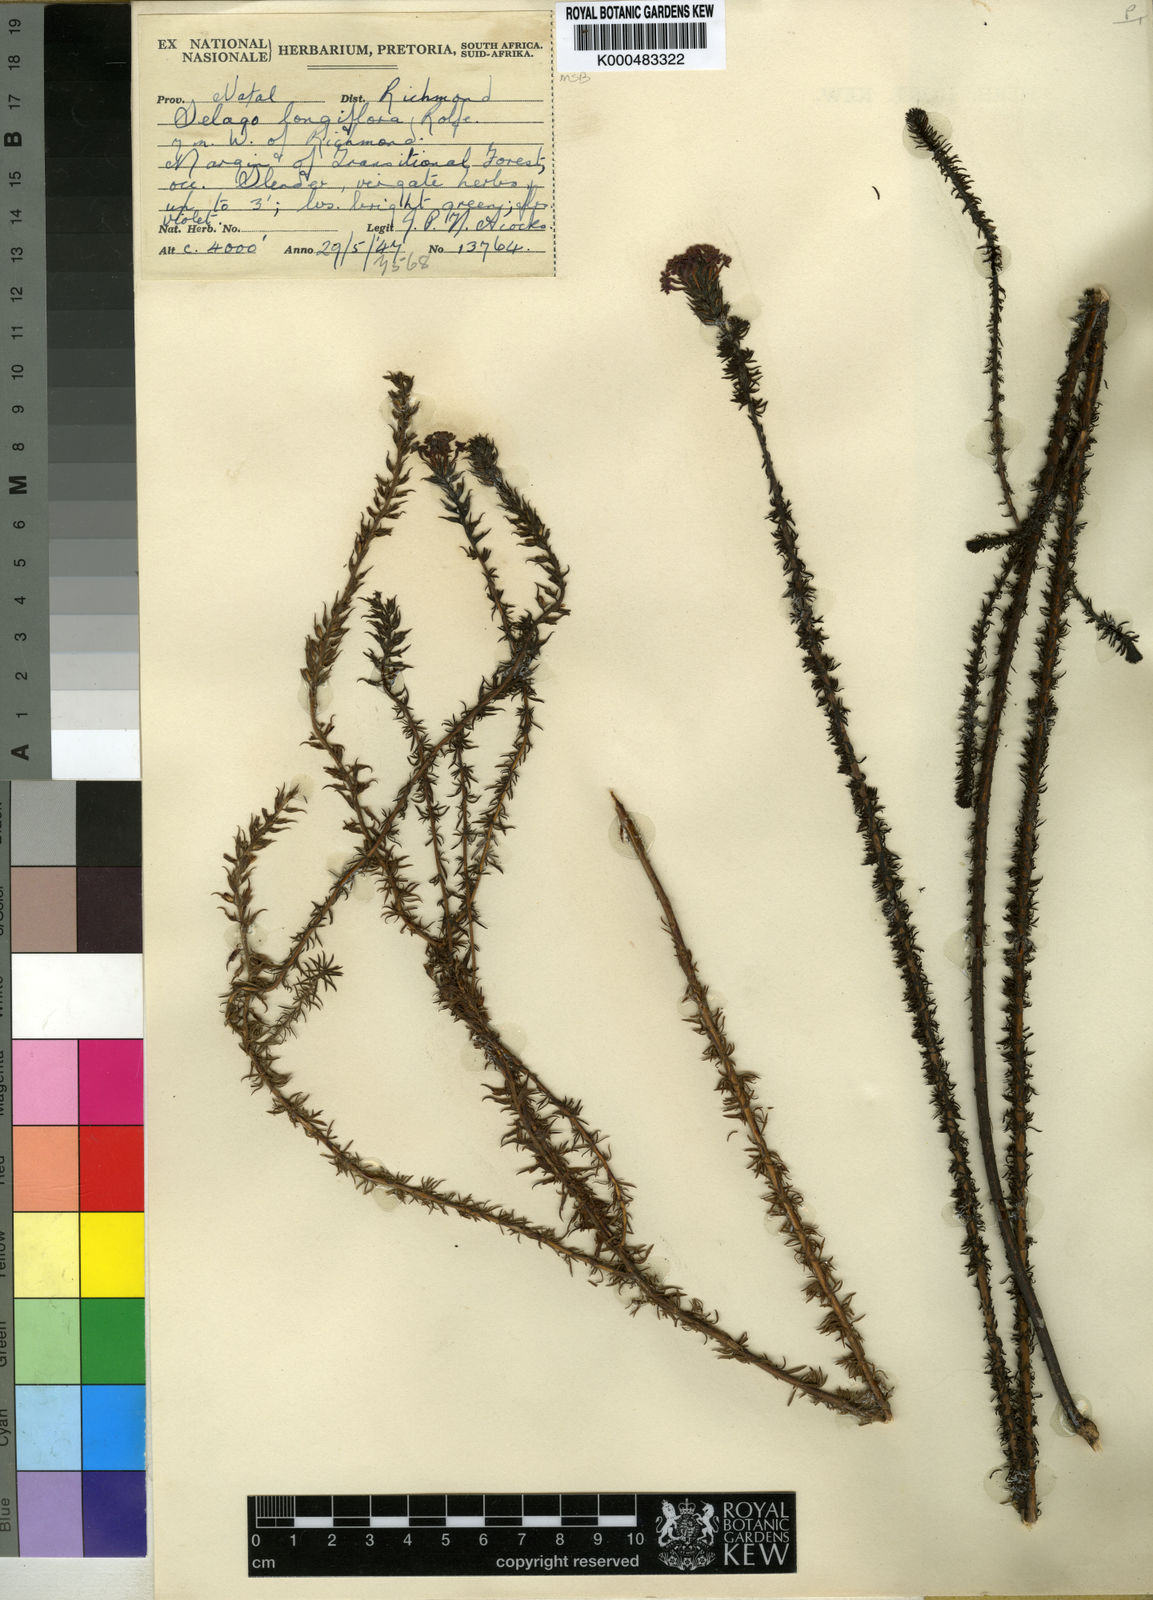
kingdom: Plantae
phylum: Tracheophyta
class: Magnoliopsida
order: Lamiales
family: Scrophulariaceae
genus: Selago
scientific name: Selago longiflora
